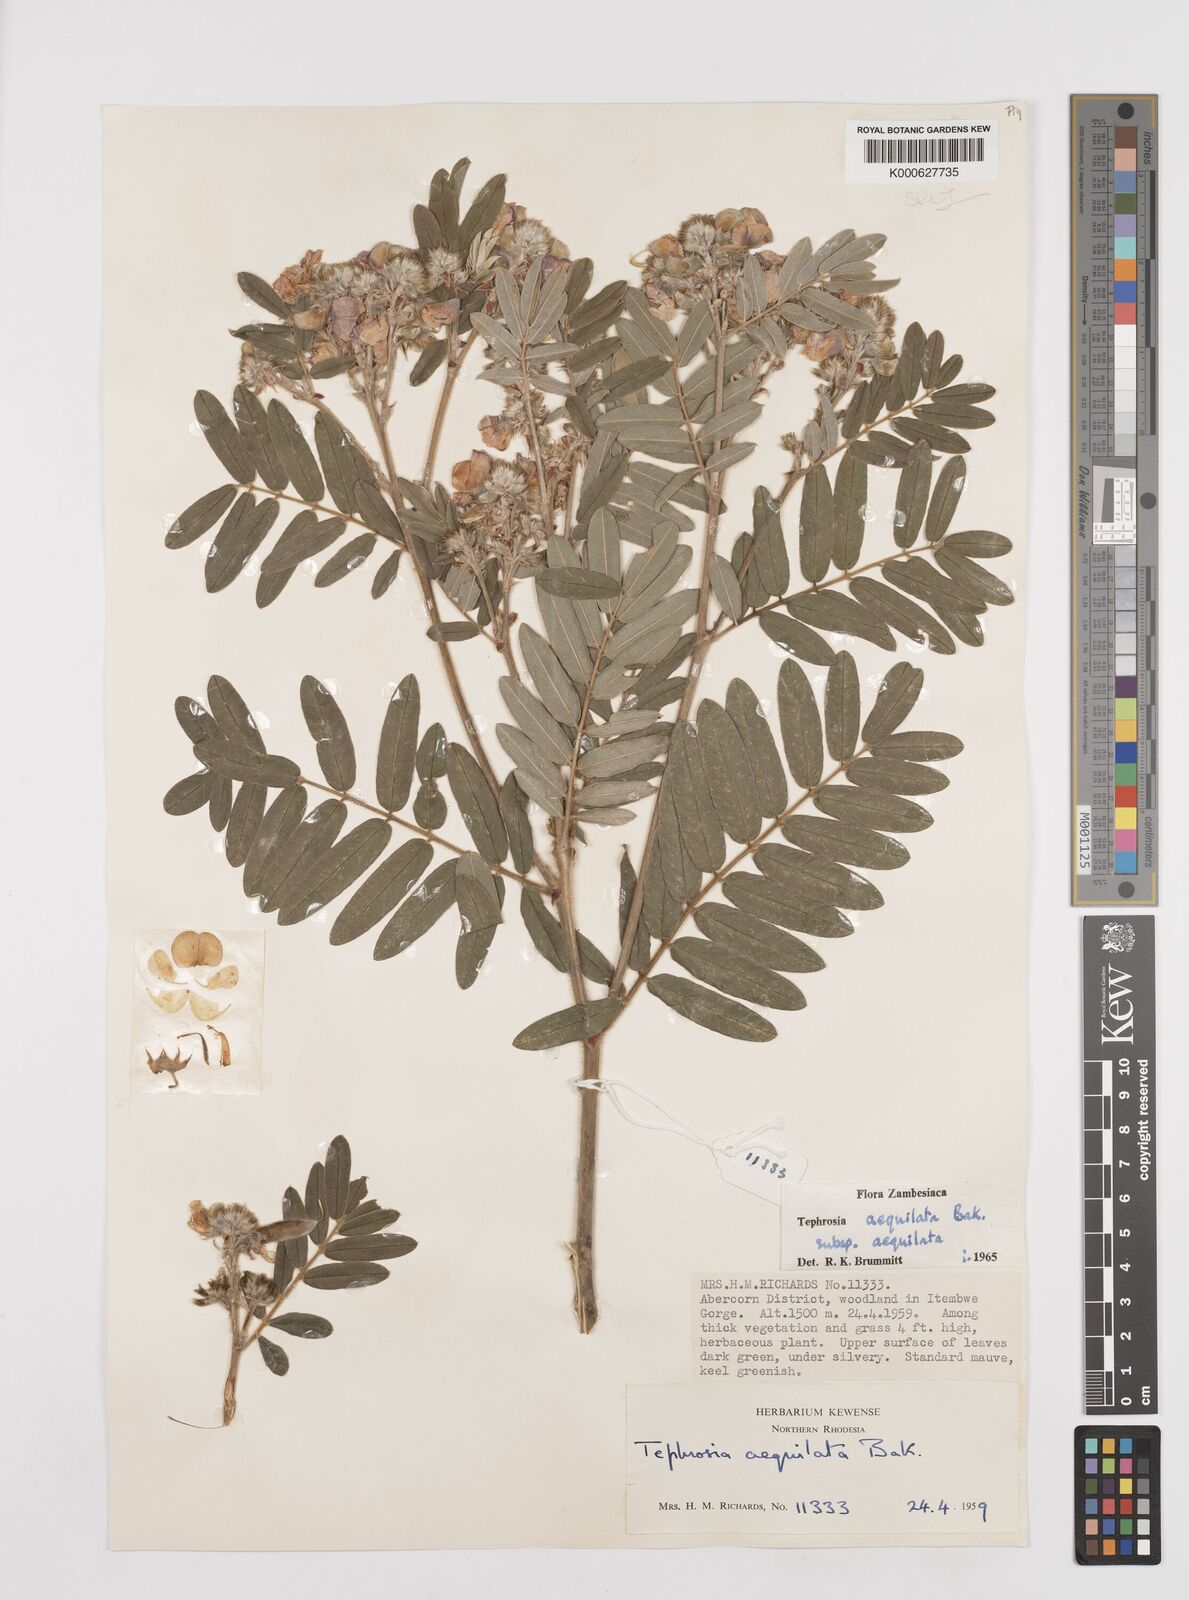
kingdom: Plantae
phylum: Tracheophyta
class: Magnoliopsida
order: Fabales
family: Fabaceae
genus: Tephrosia
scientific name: Tephrosia
